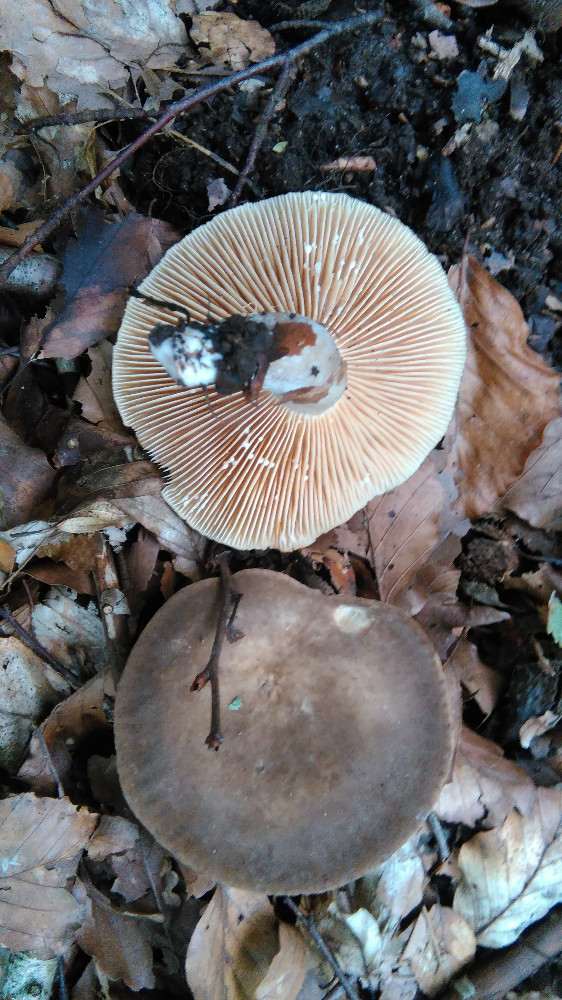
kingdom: Fungi
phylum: Basidiomycota
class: Agaricomycetes
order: Russulales
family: Russulaceae
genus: Lactarius
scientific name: Lactarius
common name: mælkehat
